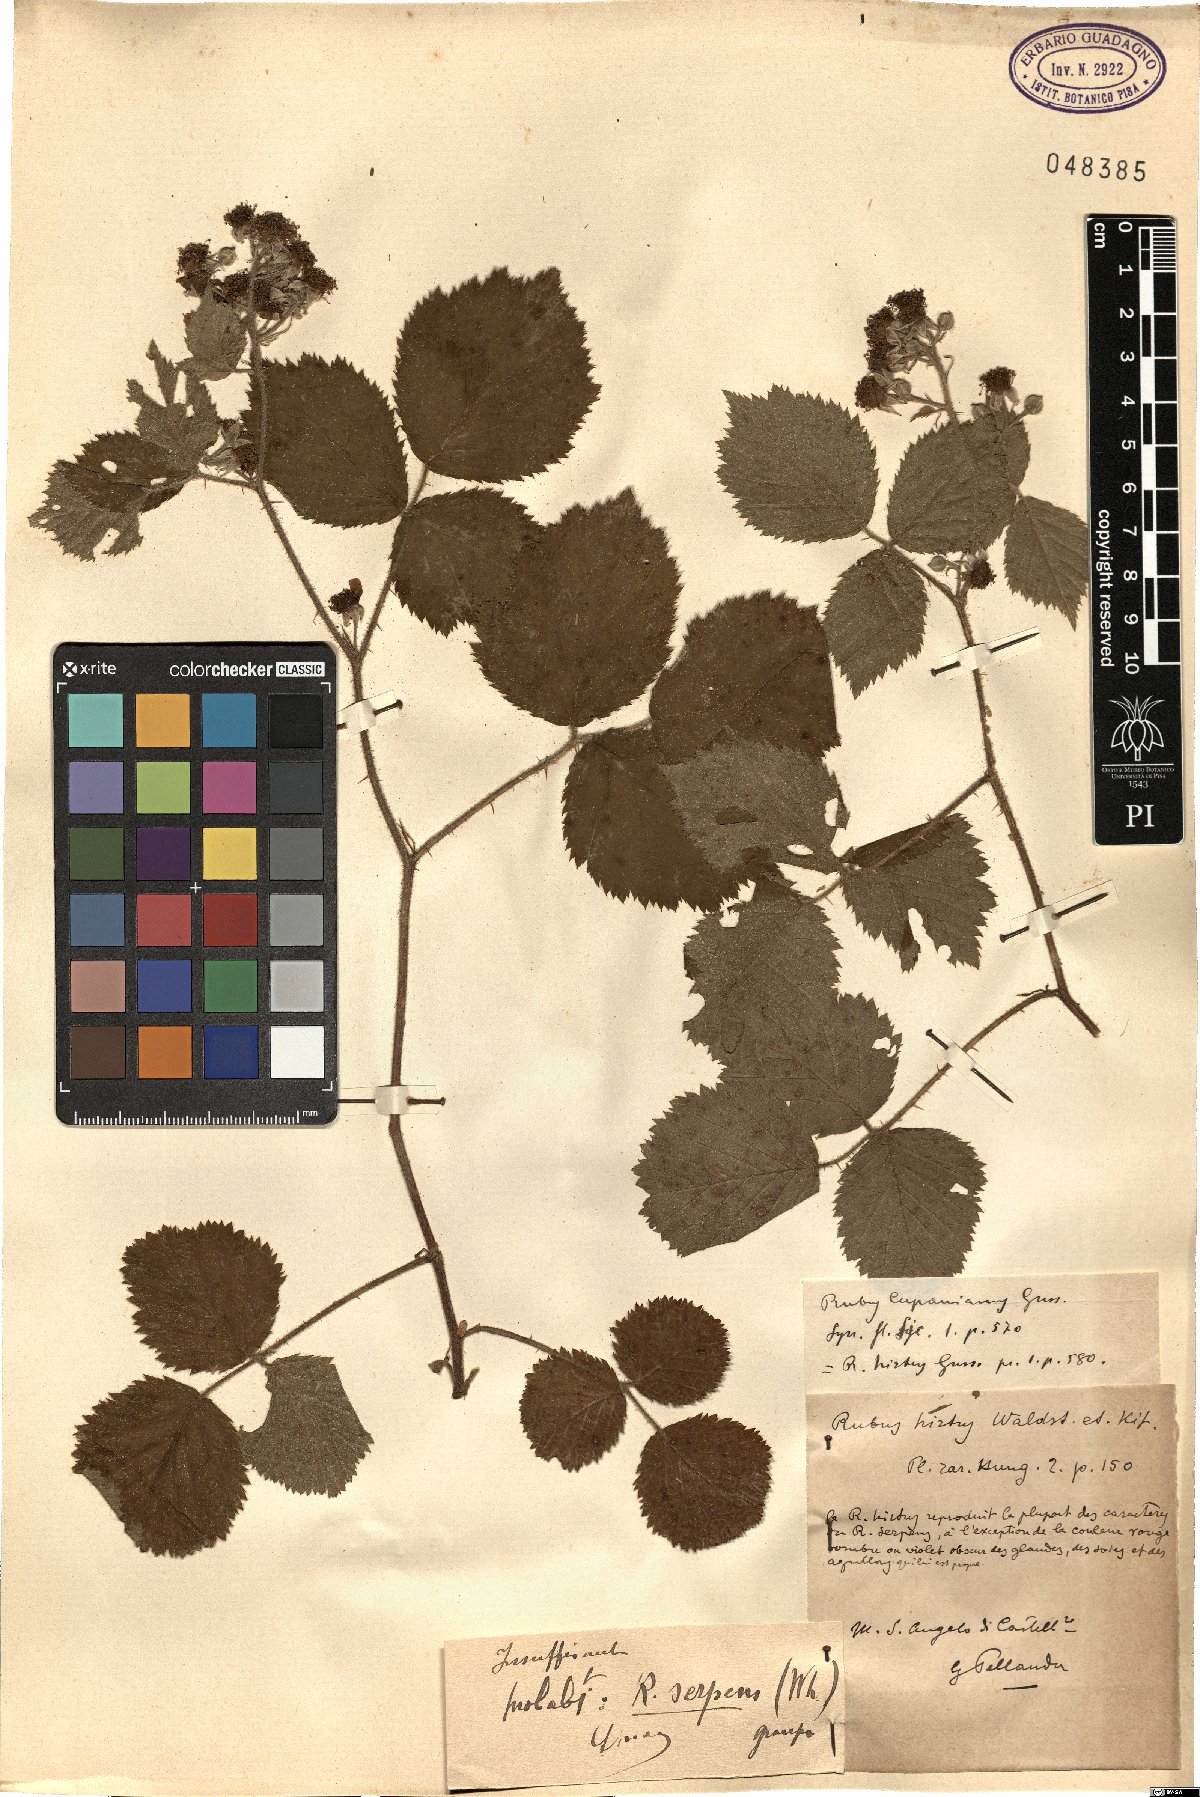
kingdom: Plantae
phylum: Tracheophyta
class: Magnoliopsida
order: Rosales
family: Rosaceae
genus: Rubus
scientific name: Rubus serpens
